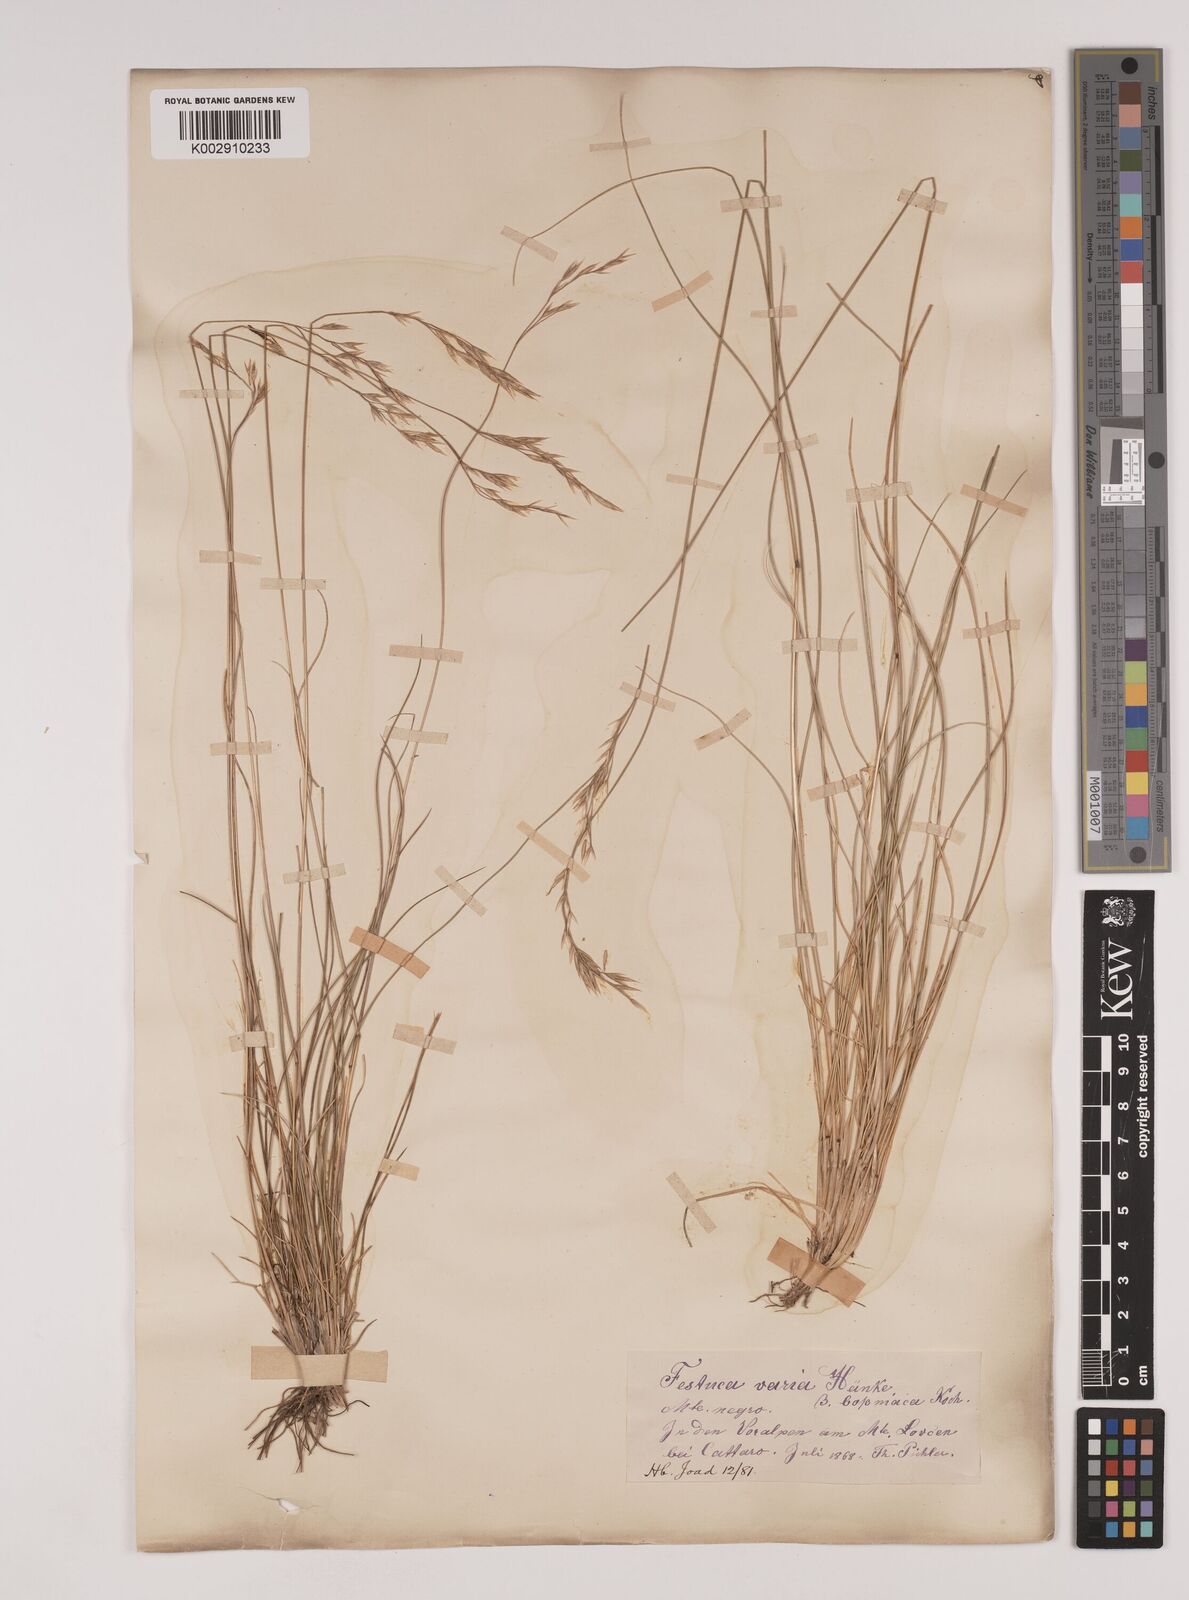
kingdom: Plantae
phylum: Tracheophyta
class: Liliopsida
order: Poales
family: Poaceae
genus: Festuca
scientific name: Festuca bosniaca
